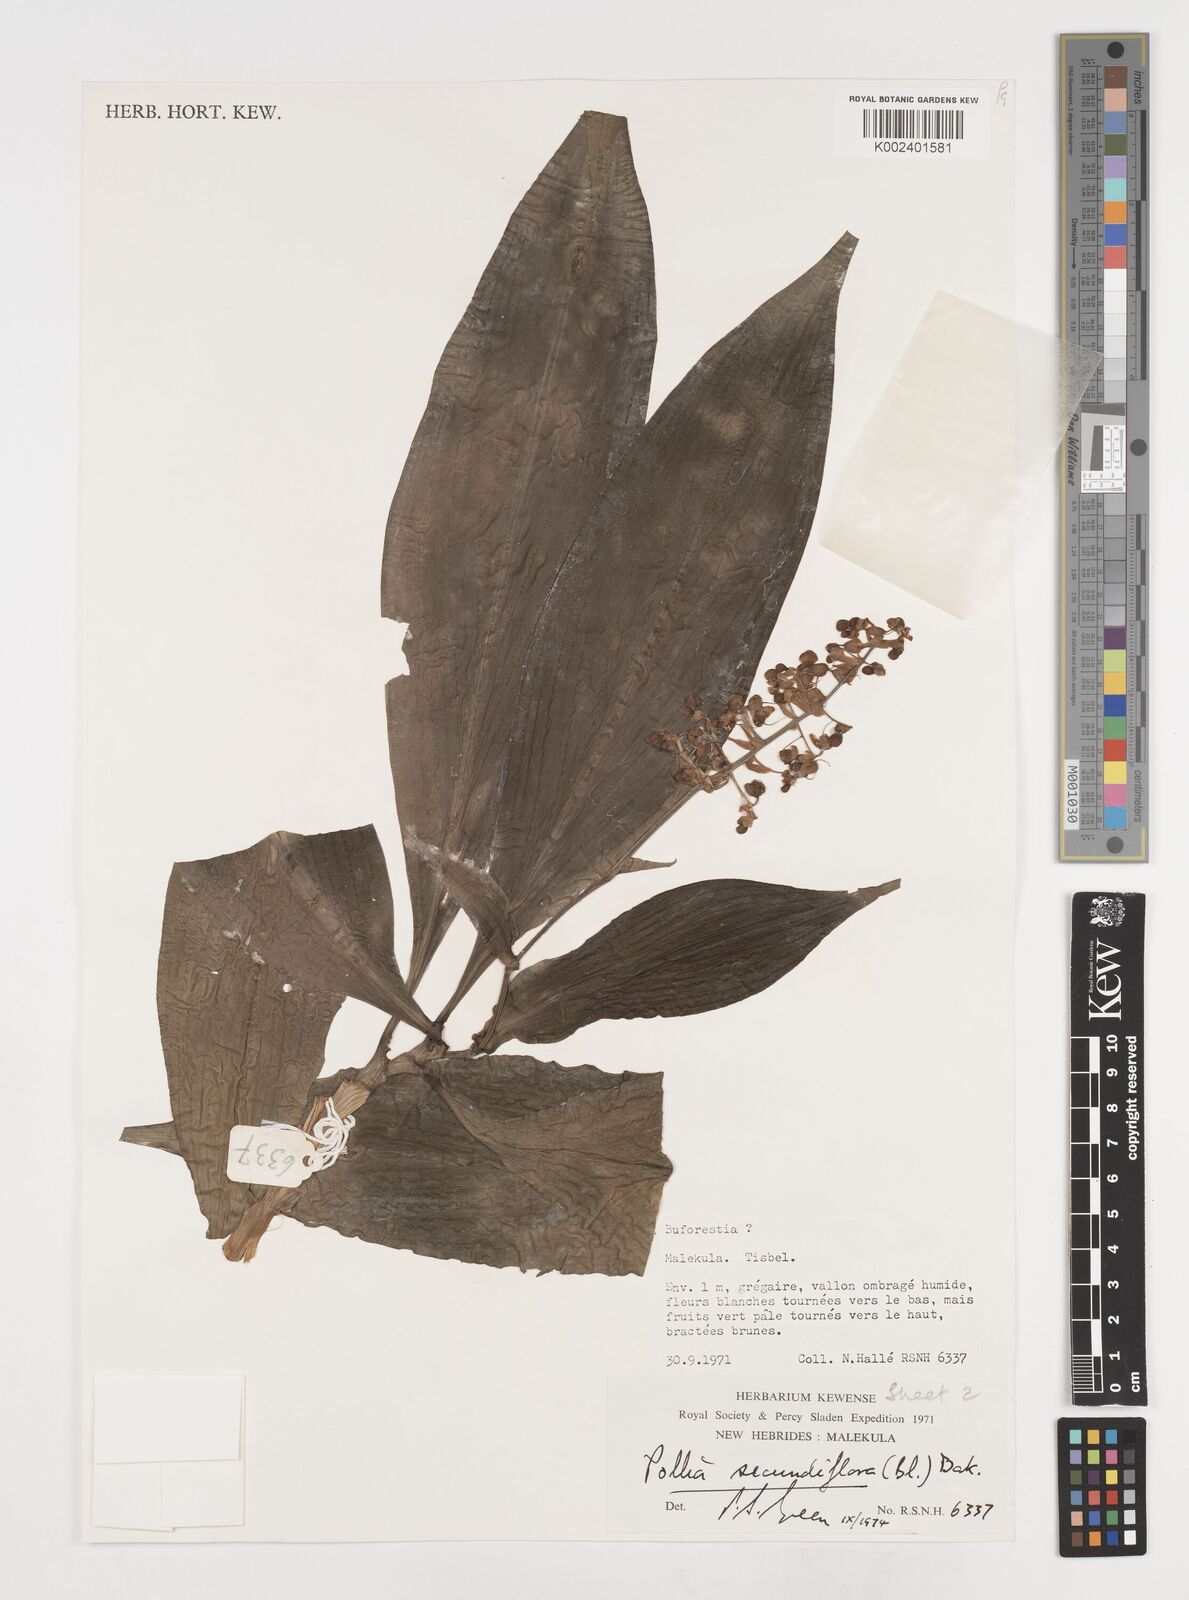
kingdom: Plantae
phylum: Tracheophyta
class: Liliopsida
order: Commelinales
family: Commelinaceae
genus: Pollia
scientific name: Pollia secundiflora
